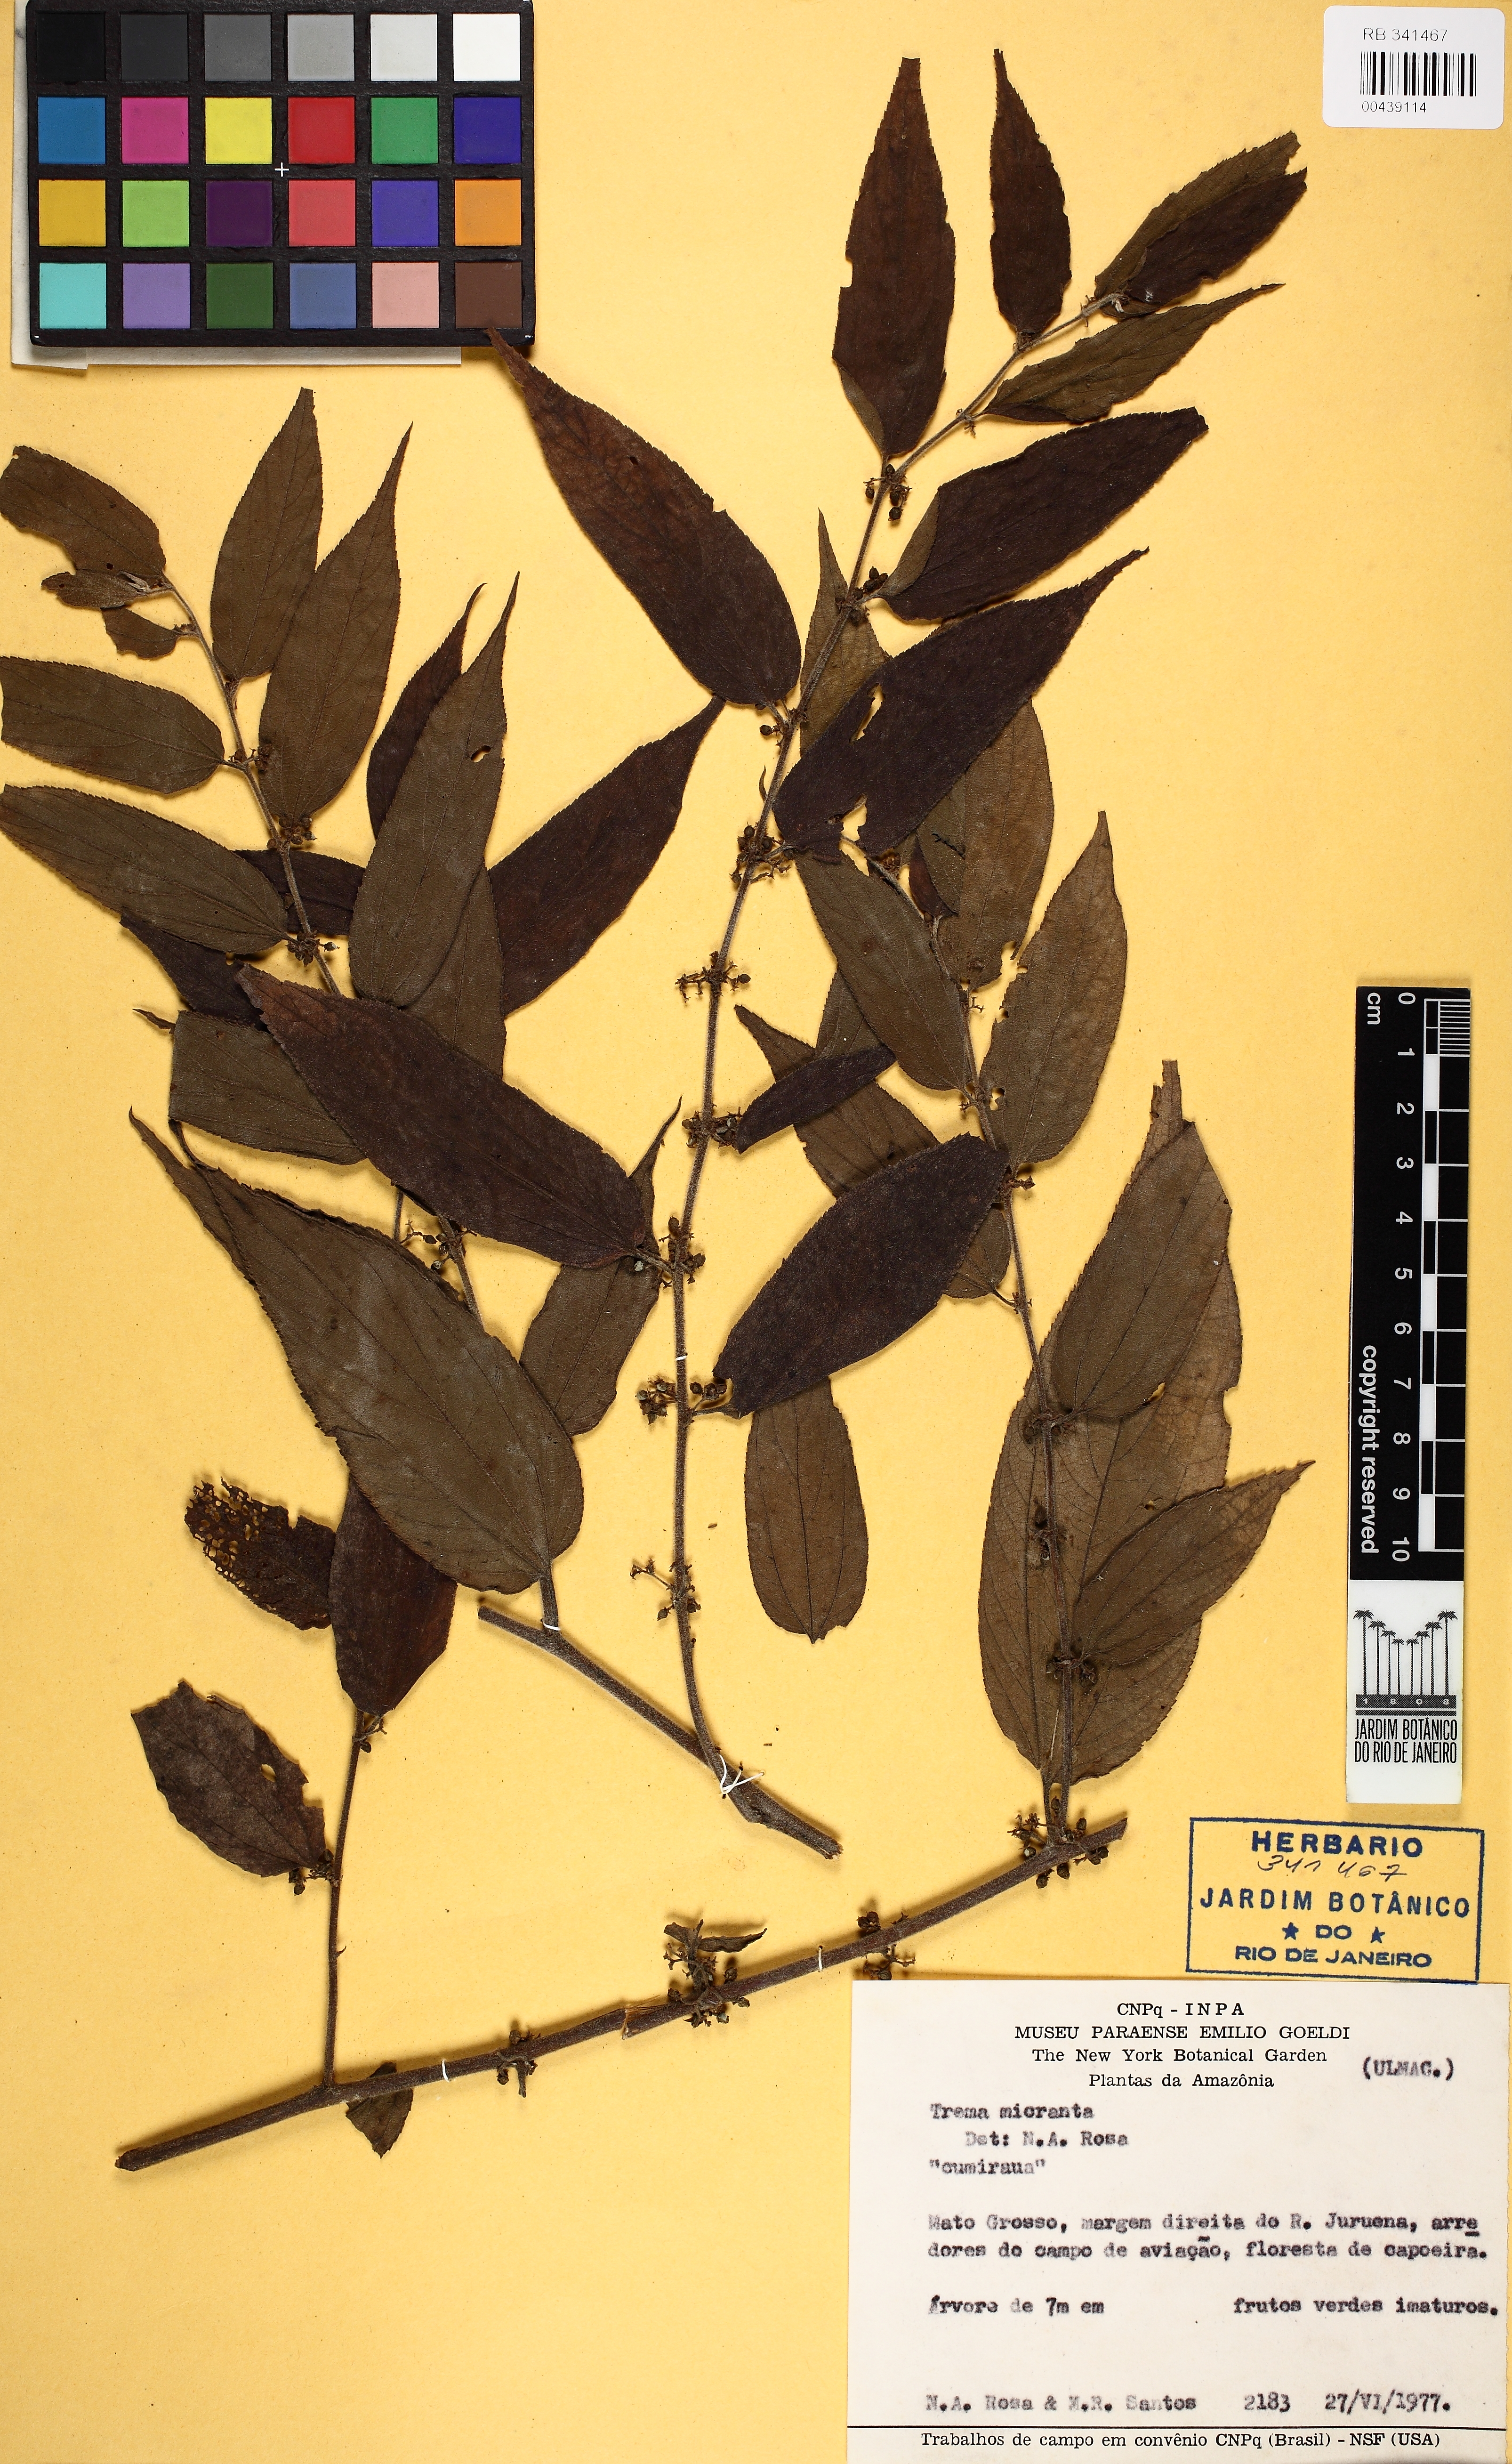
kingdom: Plantae
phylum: Tracheophyta
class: Magnoliopsida
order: Rosales
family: Cannabaceae
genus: Trema
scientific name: Trema micranthum
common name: Jamaican nettletree
